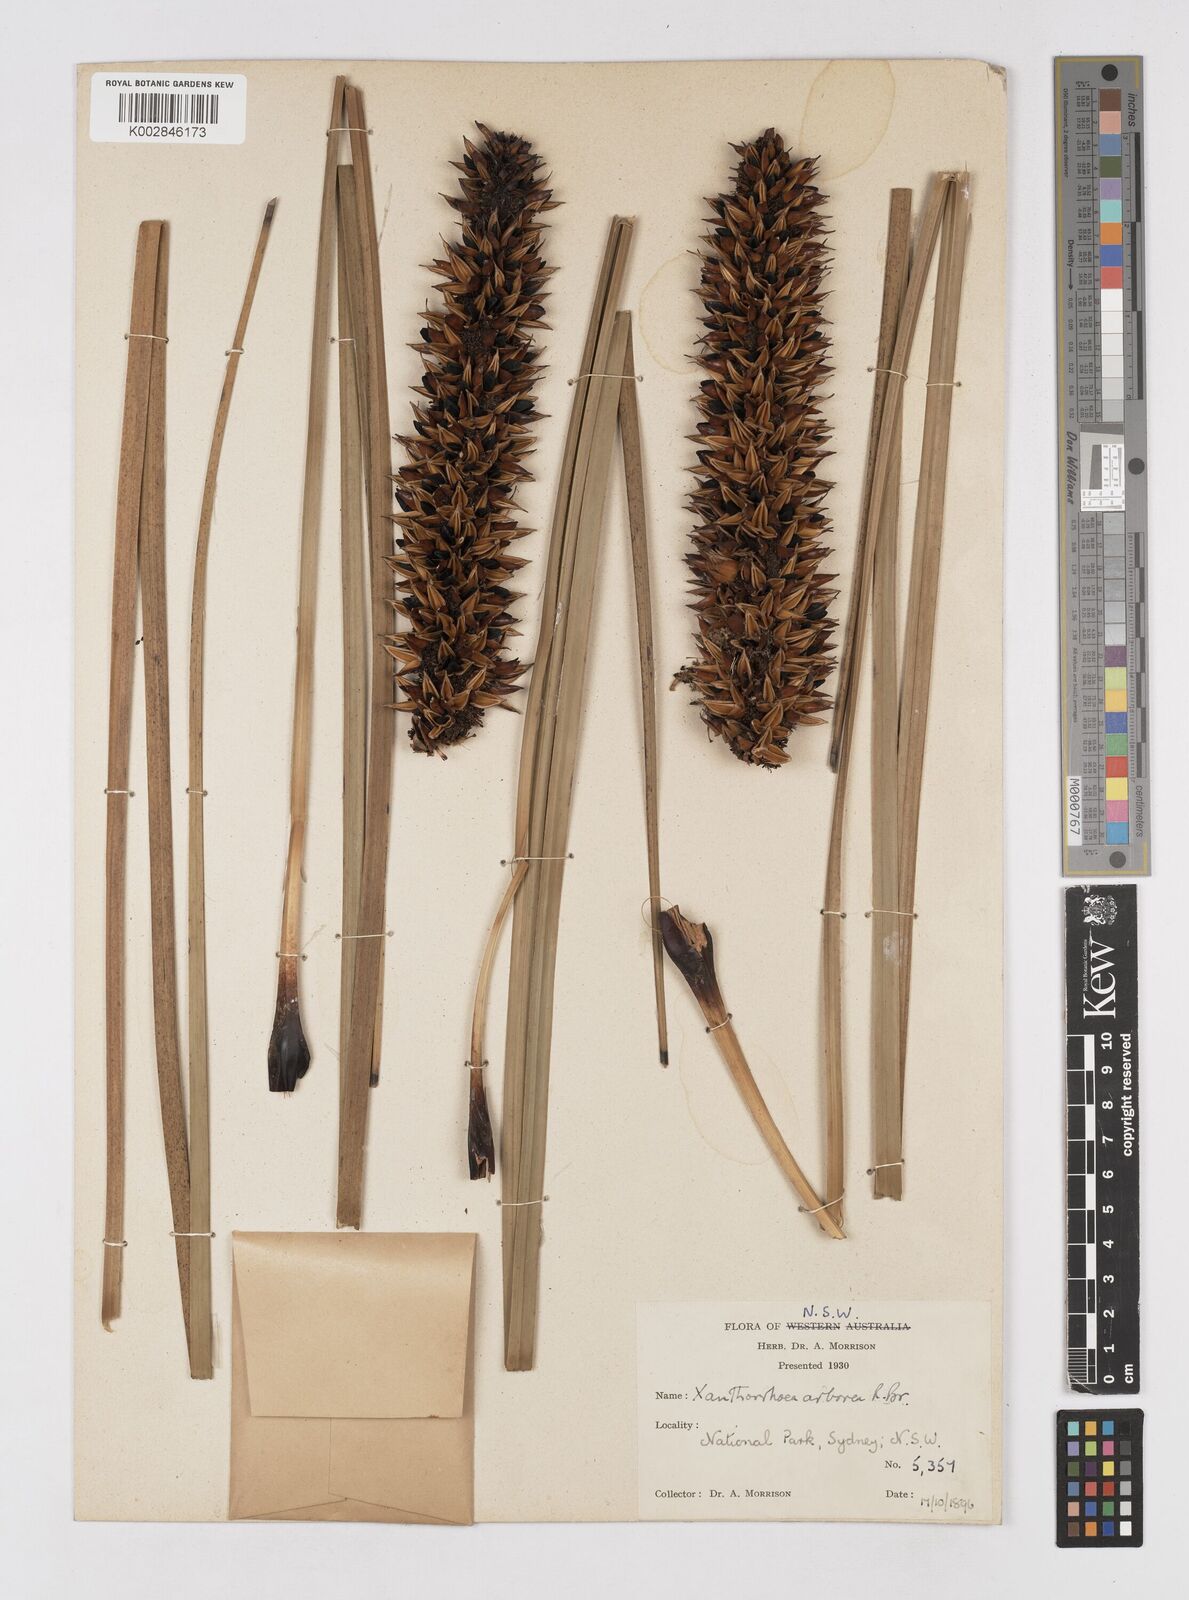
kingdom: Plantae
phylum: Tracheophyta
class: Liliopsida
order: Asparagales
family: Asphodelaceae
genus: Xanthorrhoea
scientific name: Xanthorrhoea arborea
